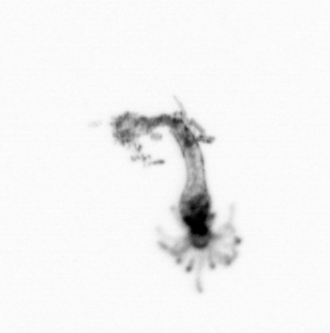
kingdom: Animalia
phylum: Cnidaria
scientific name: Cnidaria
